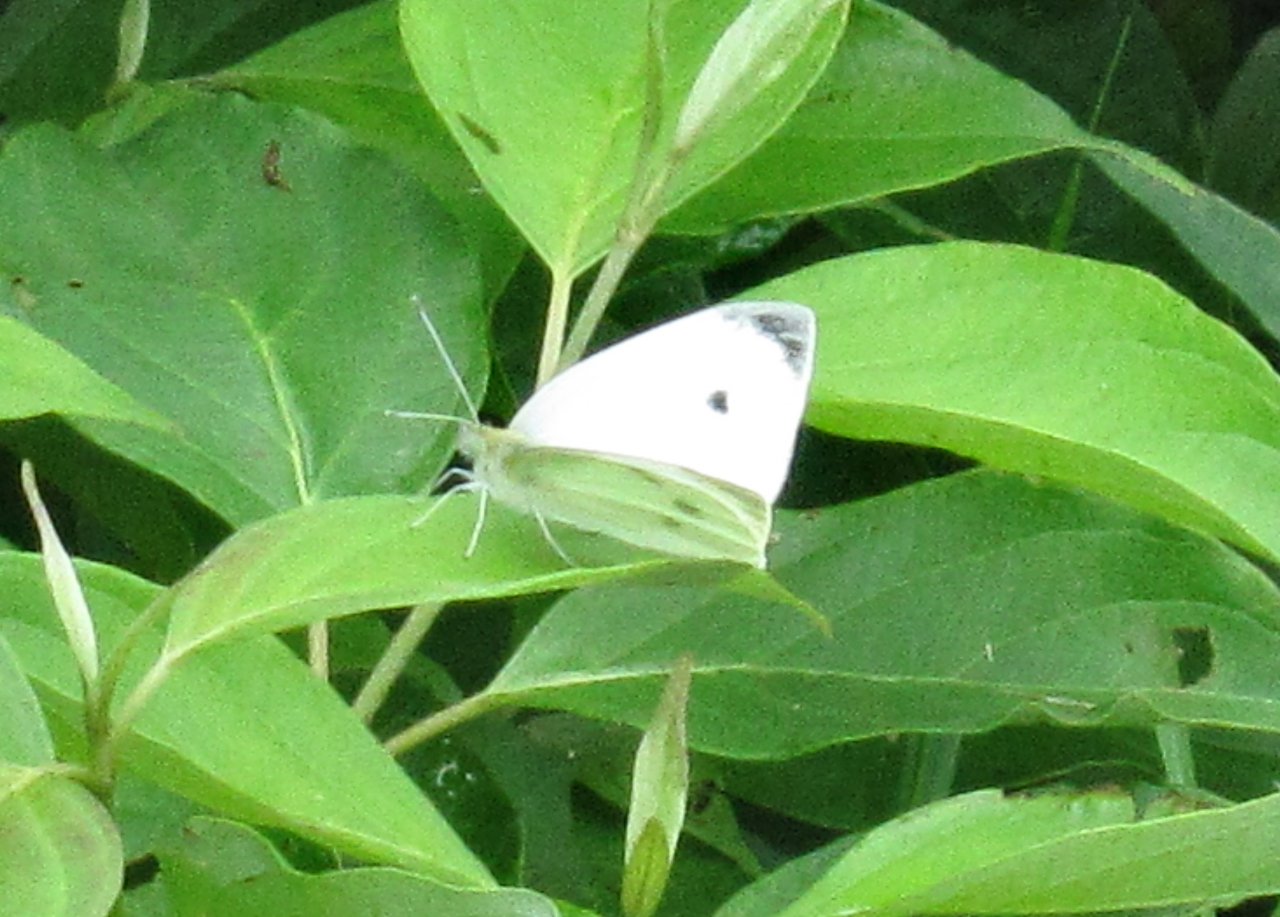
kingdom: Animalia
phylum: Arthropoda
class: Insecta
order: Lepidoptera
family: Pieridae
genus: Pieris
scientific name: Pieris rapae
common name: Cabbage White
